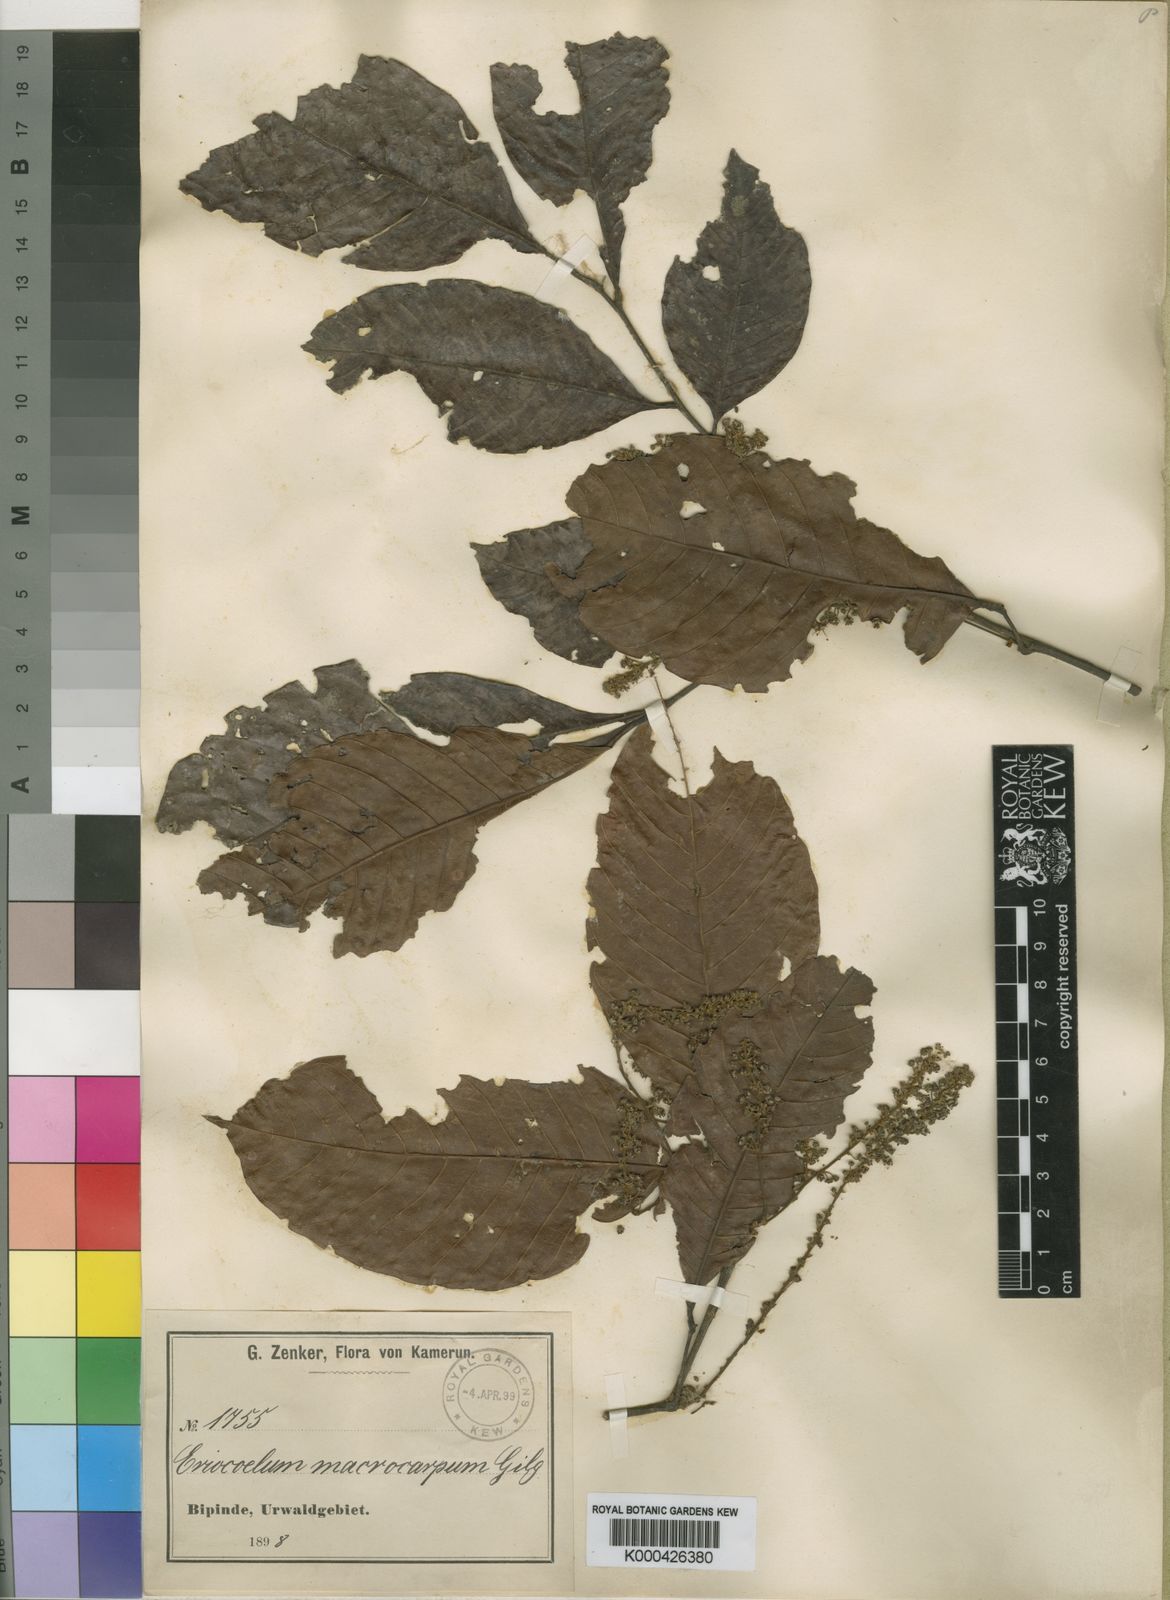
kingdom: Plantae
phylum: Tracheophyta
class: Magnoliopsida
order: Sapindales
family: Sapindaceae
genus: Eriocoelum
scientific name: Eriocoelum macrocarpum
